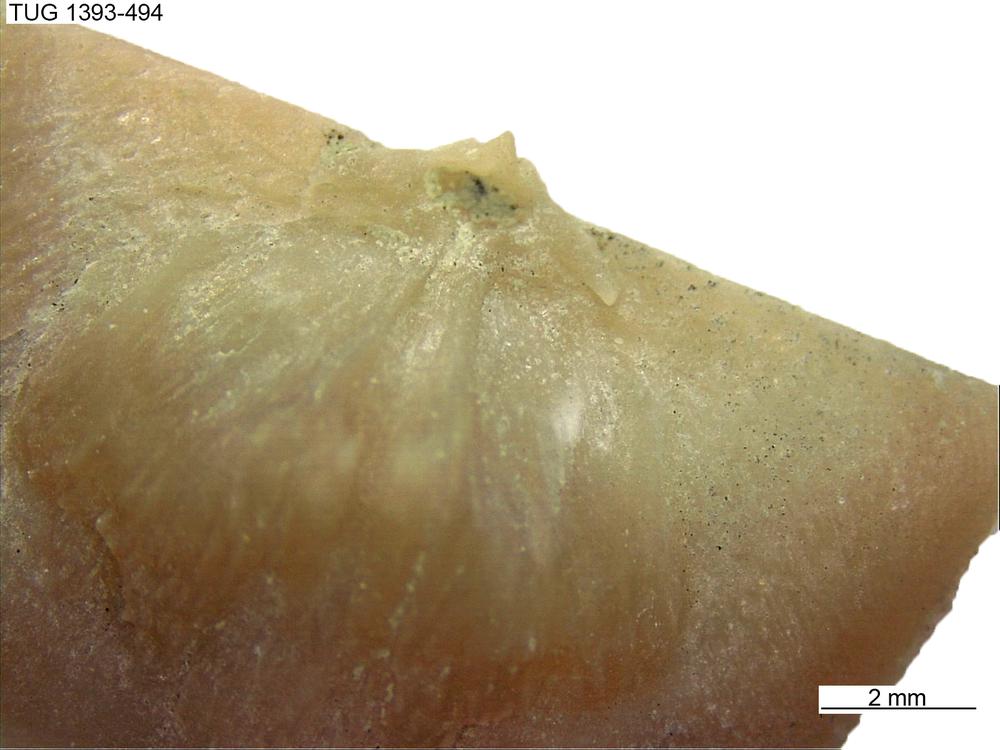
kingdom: Animalia
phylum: Brachiopoda
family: Sowerbyellidae
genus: Sowerbyella
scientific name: Sowerbyella
